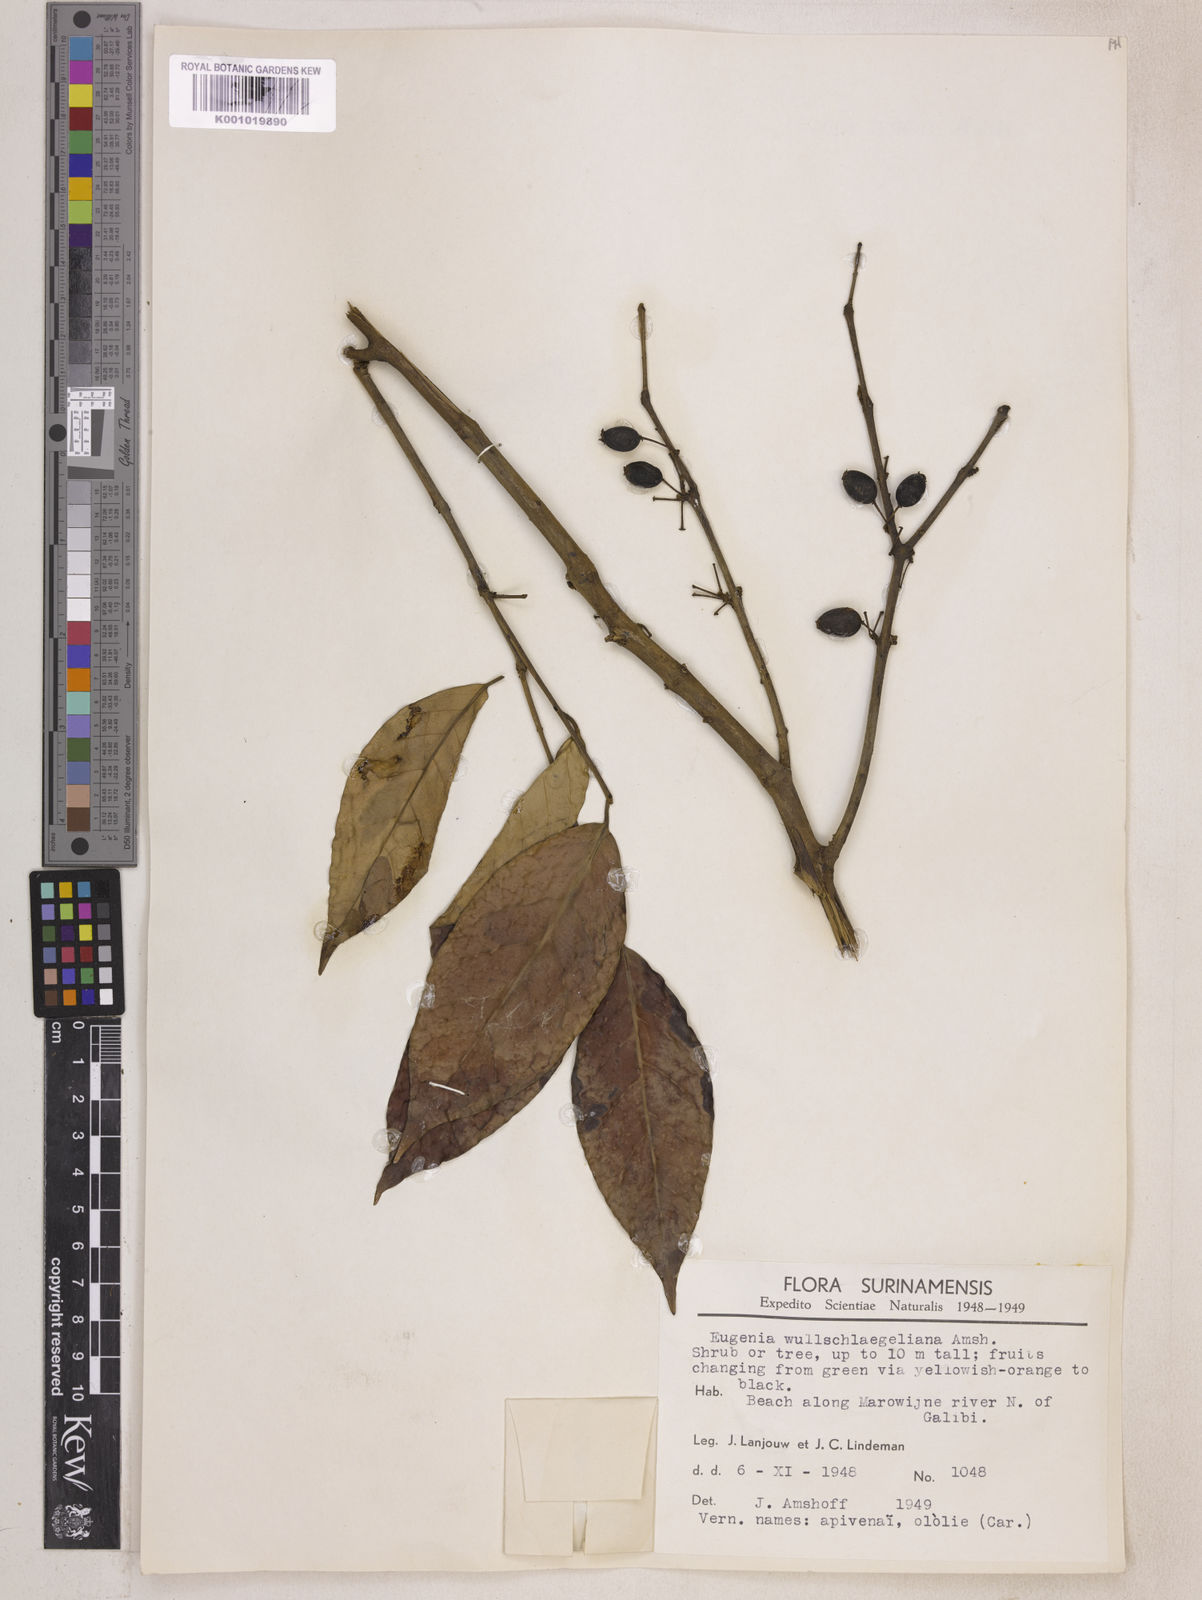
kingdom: Plantae
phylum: Tracheophyta
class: Magnoliopsida
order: Myrtales
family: Myrtaceae
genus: Eugenia
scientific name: Eugenia wullschlaegeliana
